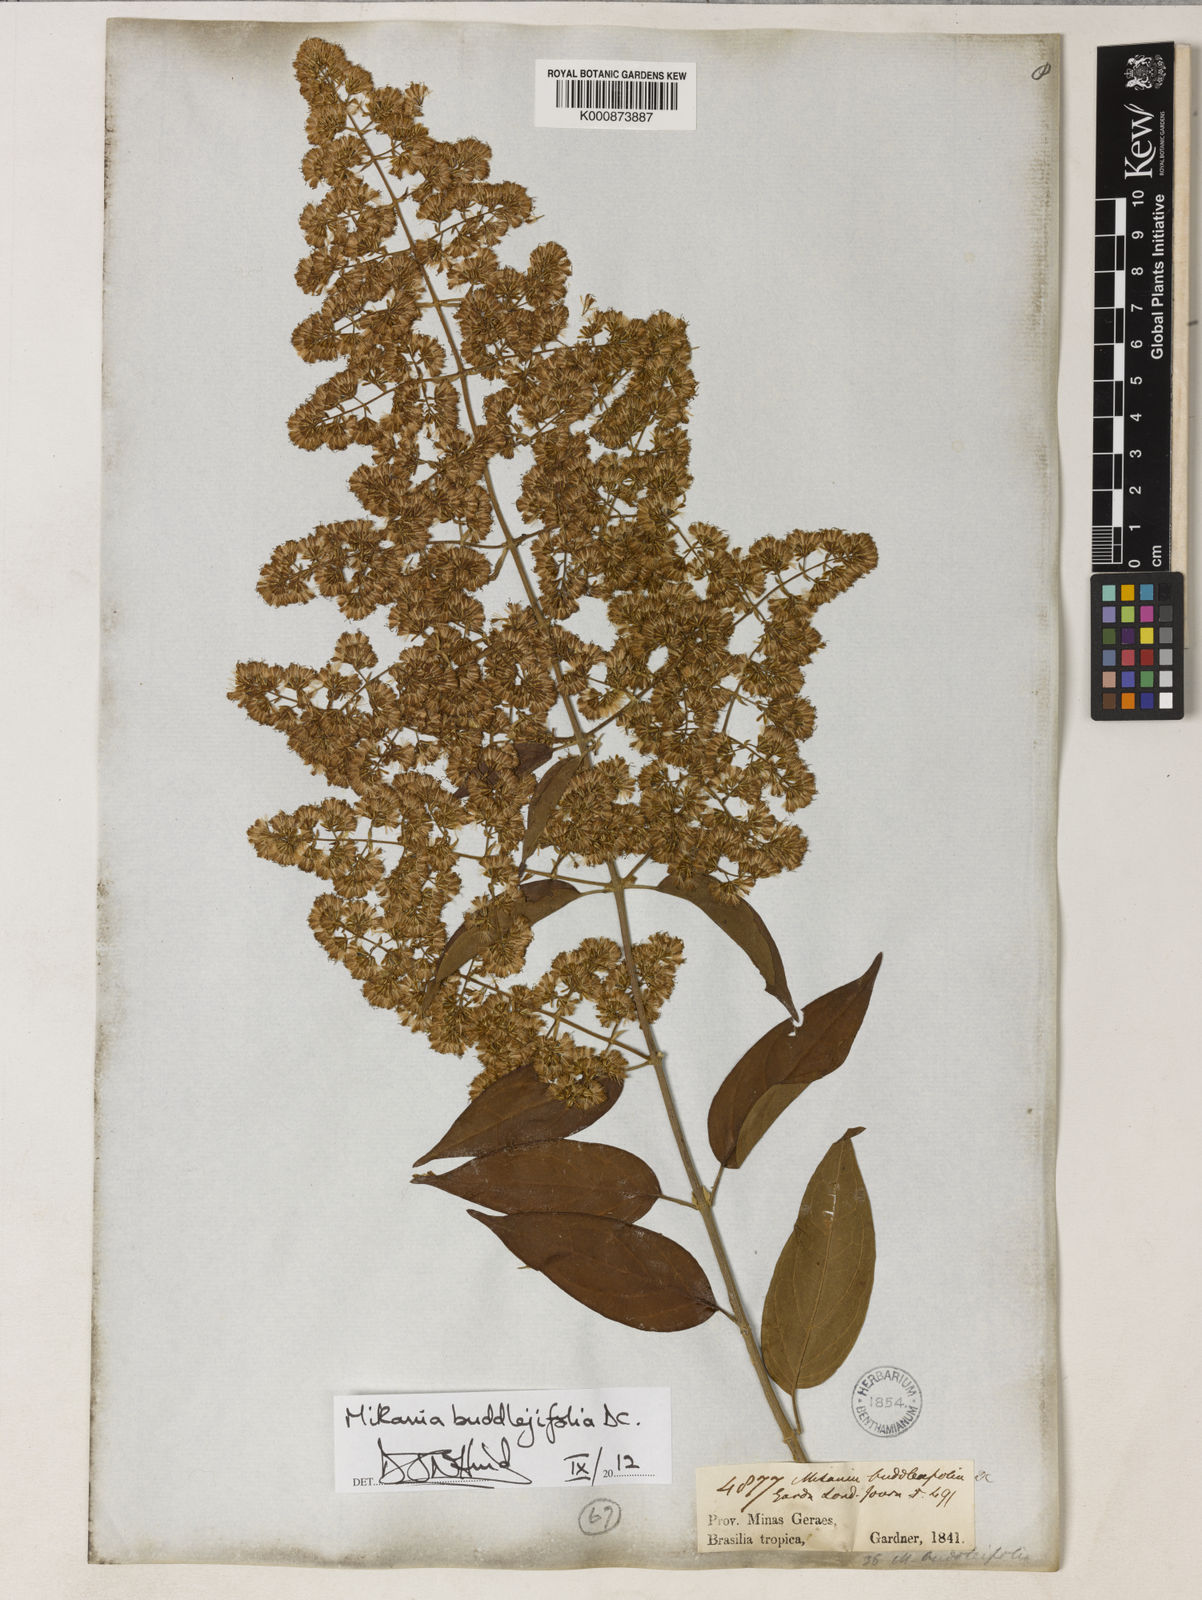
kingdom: Plantae
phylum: Tracheophyta
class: Magnoliopsida
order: Asterales
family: Asteraceae
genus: Mikania
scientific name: Mikania buddlejifolia
